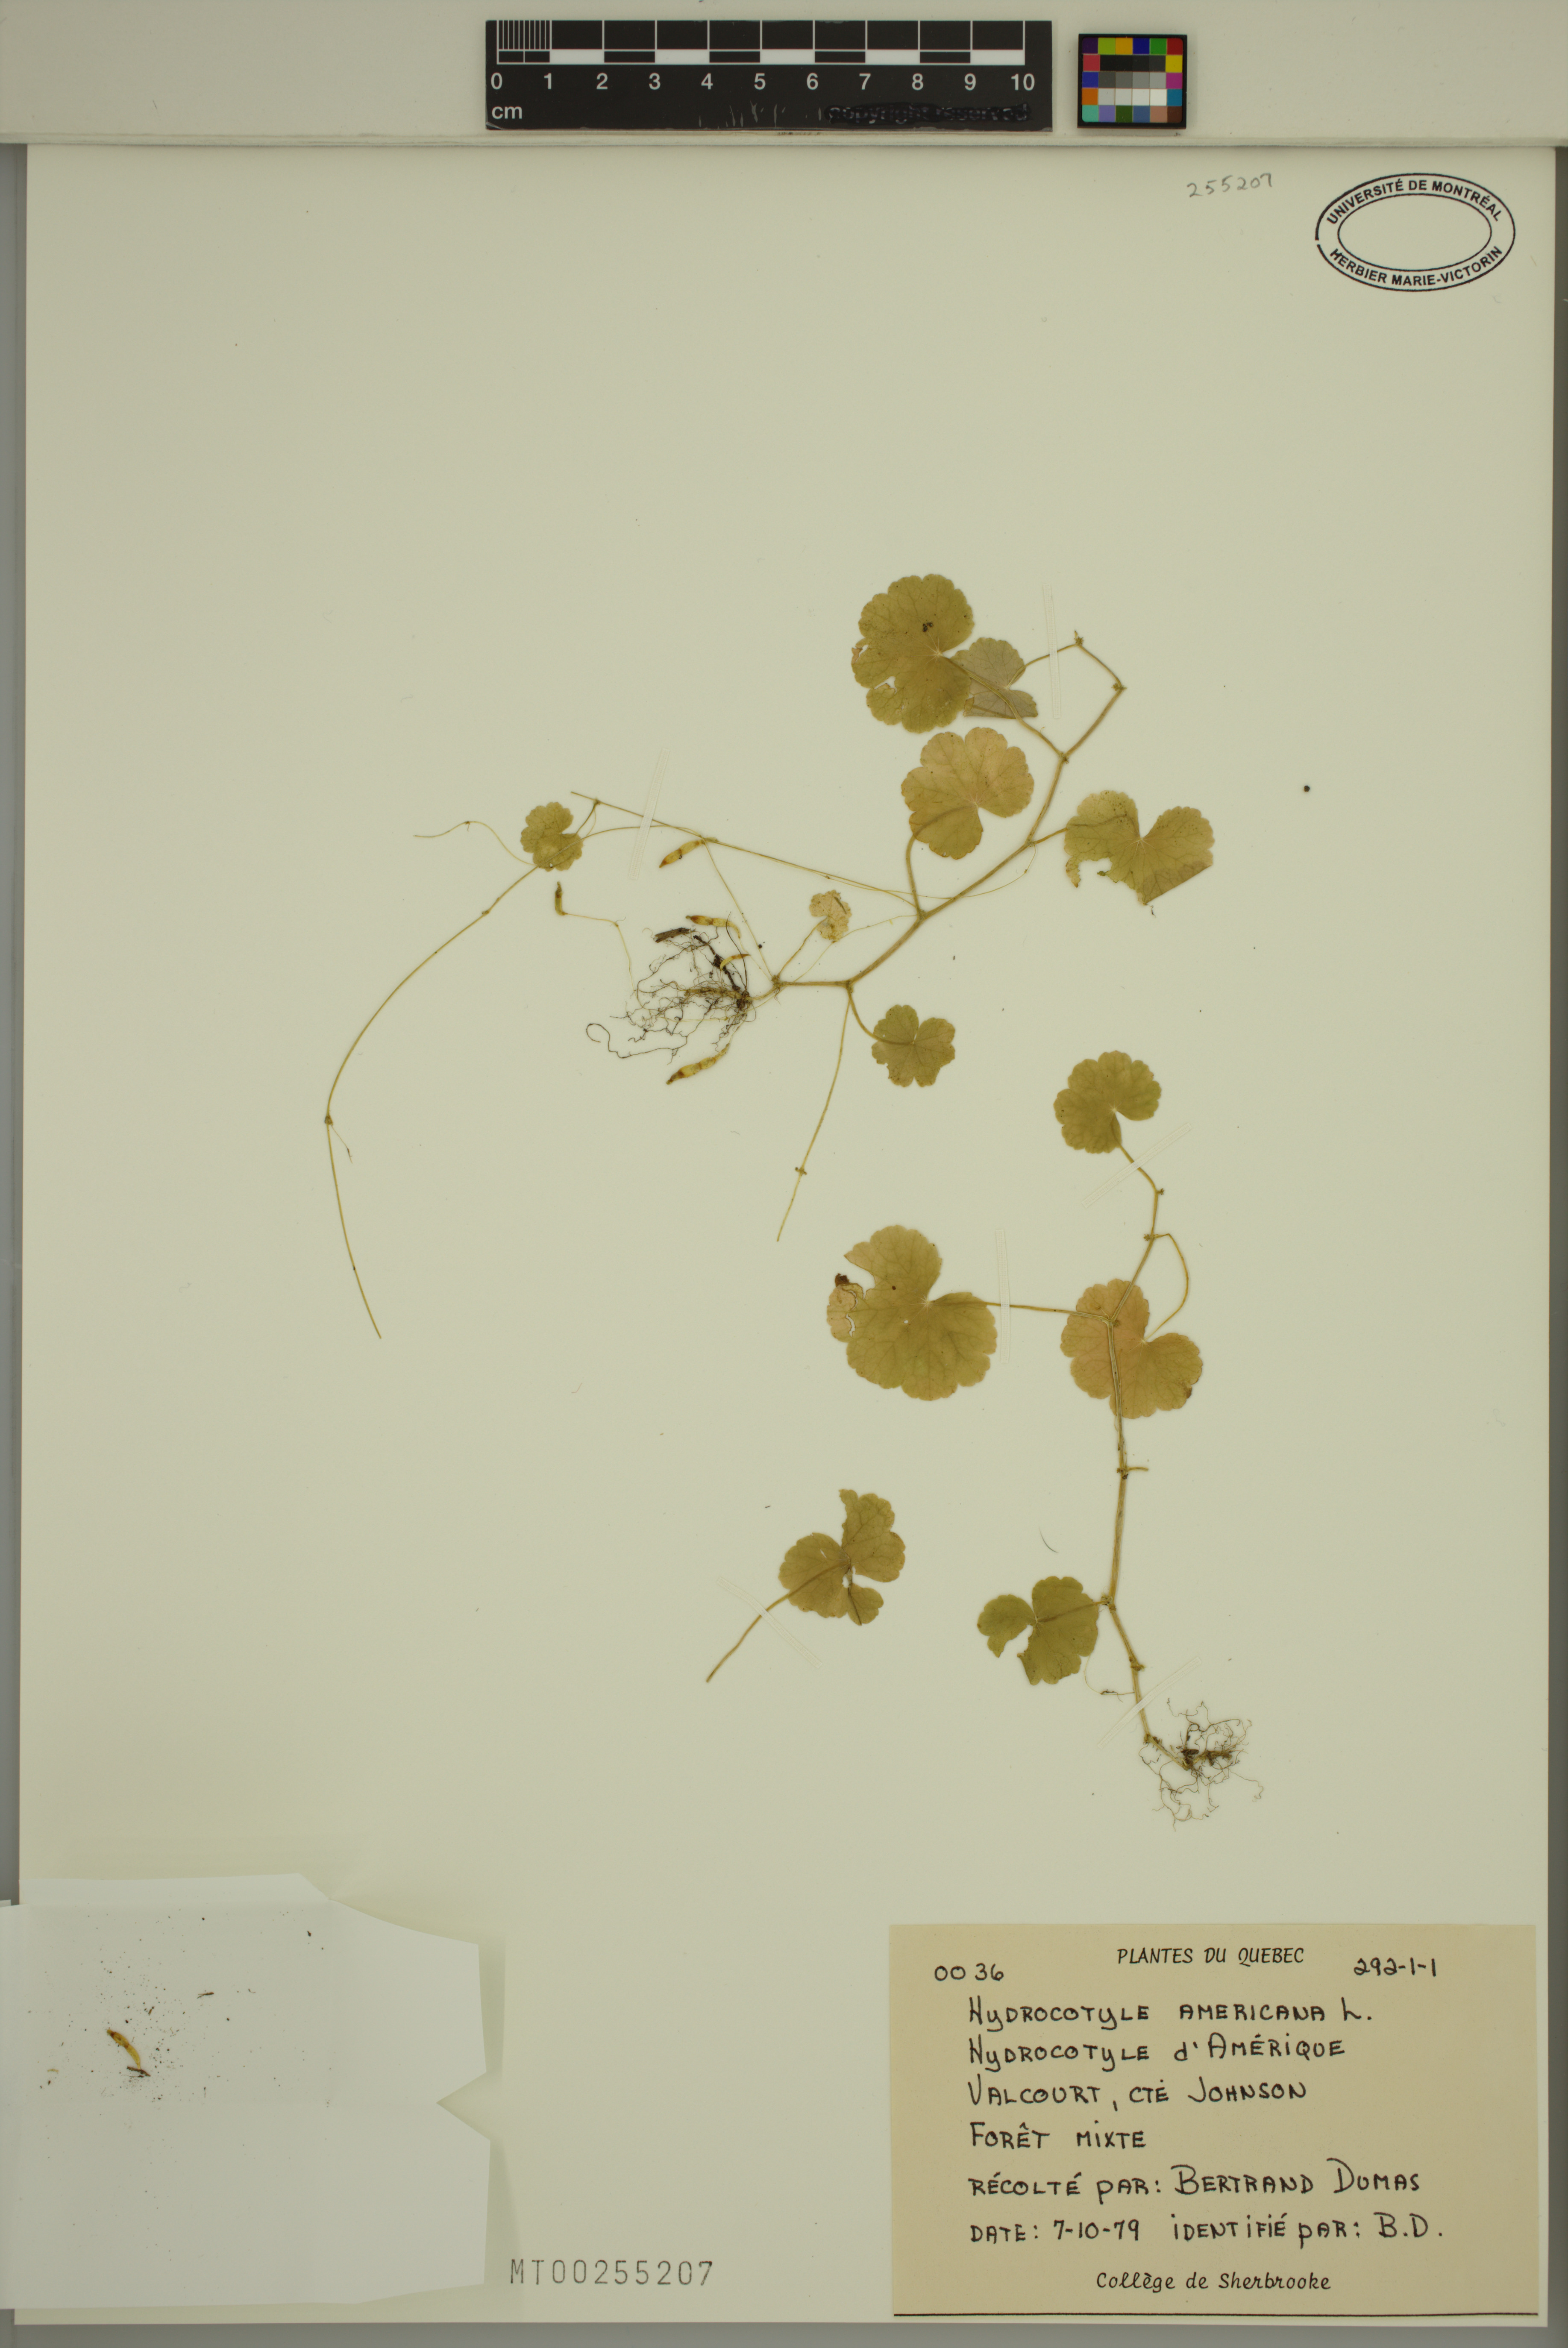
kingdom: Plantae
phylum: Tracheophyta
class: Magnoliopsida
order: Apiales
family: Araliaceae
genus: Hydrocotyle
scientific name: Hydrocotyle americana
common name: American water-pennywort
